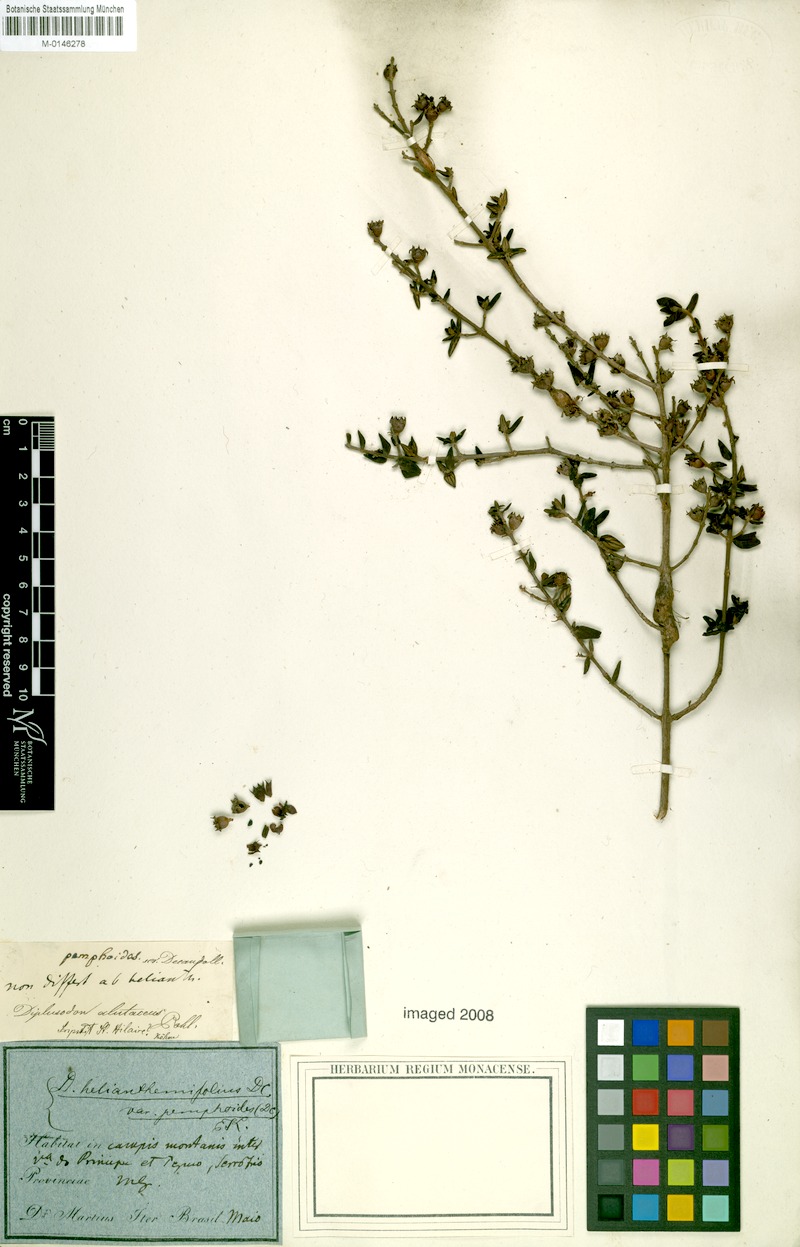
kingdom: Plantae
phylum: Tracheophyta
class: Magnoliopsida
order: Myrtales
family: Lythraceae
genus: Diplusodon
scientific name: Diplusodon helianthemifolius
